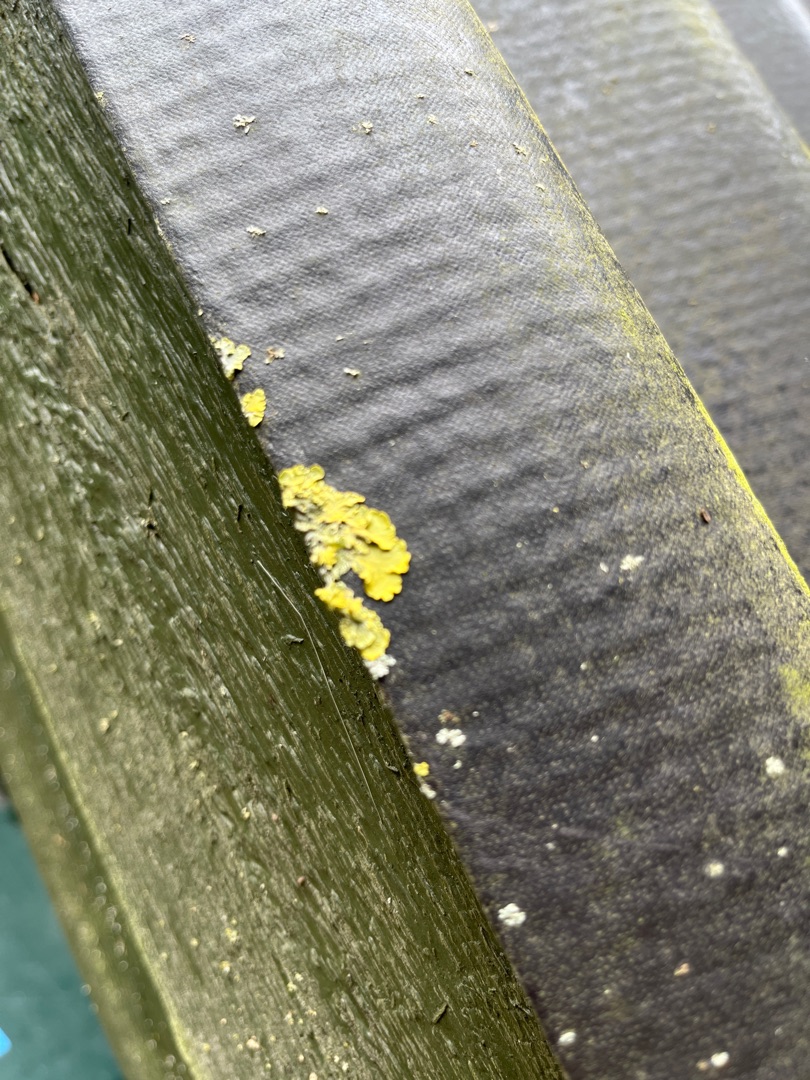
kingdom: Fungi
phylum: Ascomycota
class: Lecanoromycetes
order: Teloschistales
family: Teloschistaceae
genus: Xanthoria
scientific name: Xanthoria parietina
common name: Almindelig væggelav
